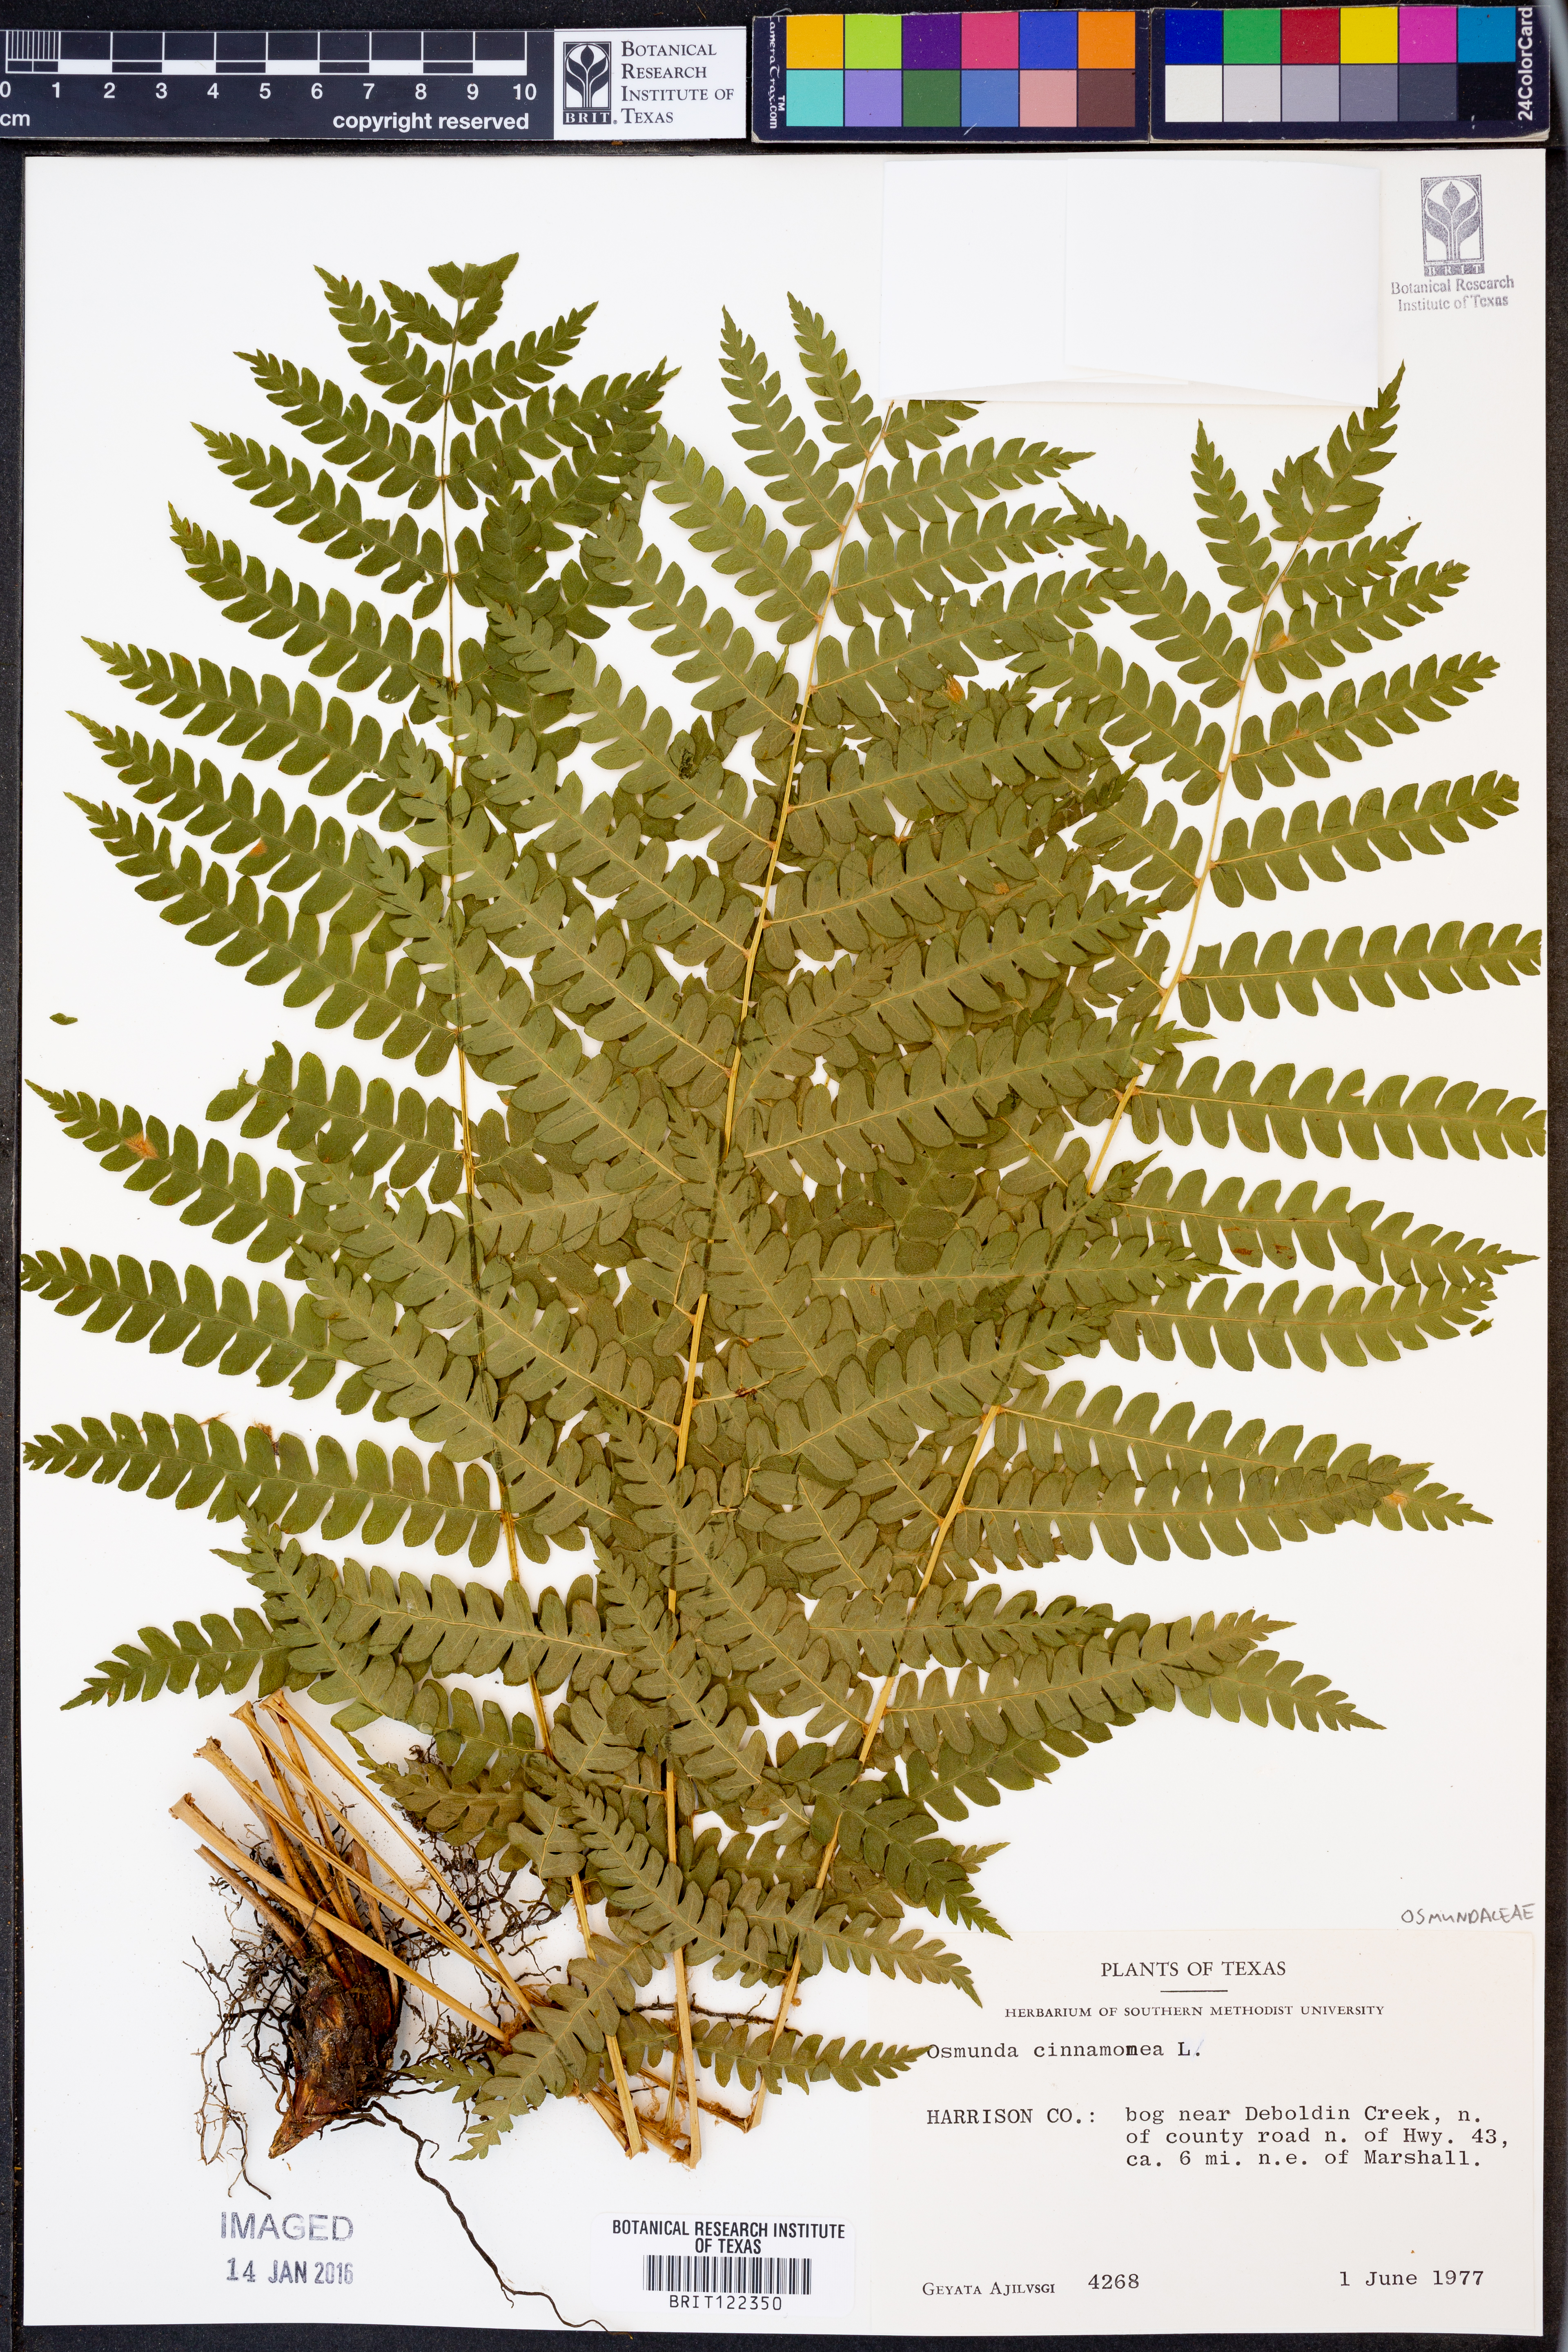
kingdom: Plantae
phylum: Tracheophyta
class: Polypodiopsida
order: Osmundales
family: Osmundaceae
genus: Osmundastrum
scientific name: Osmundastrum cinnamomeum
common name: Cinnamon fern
